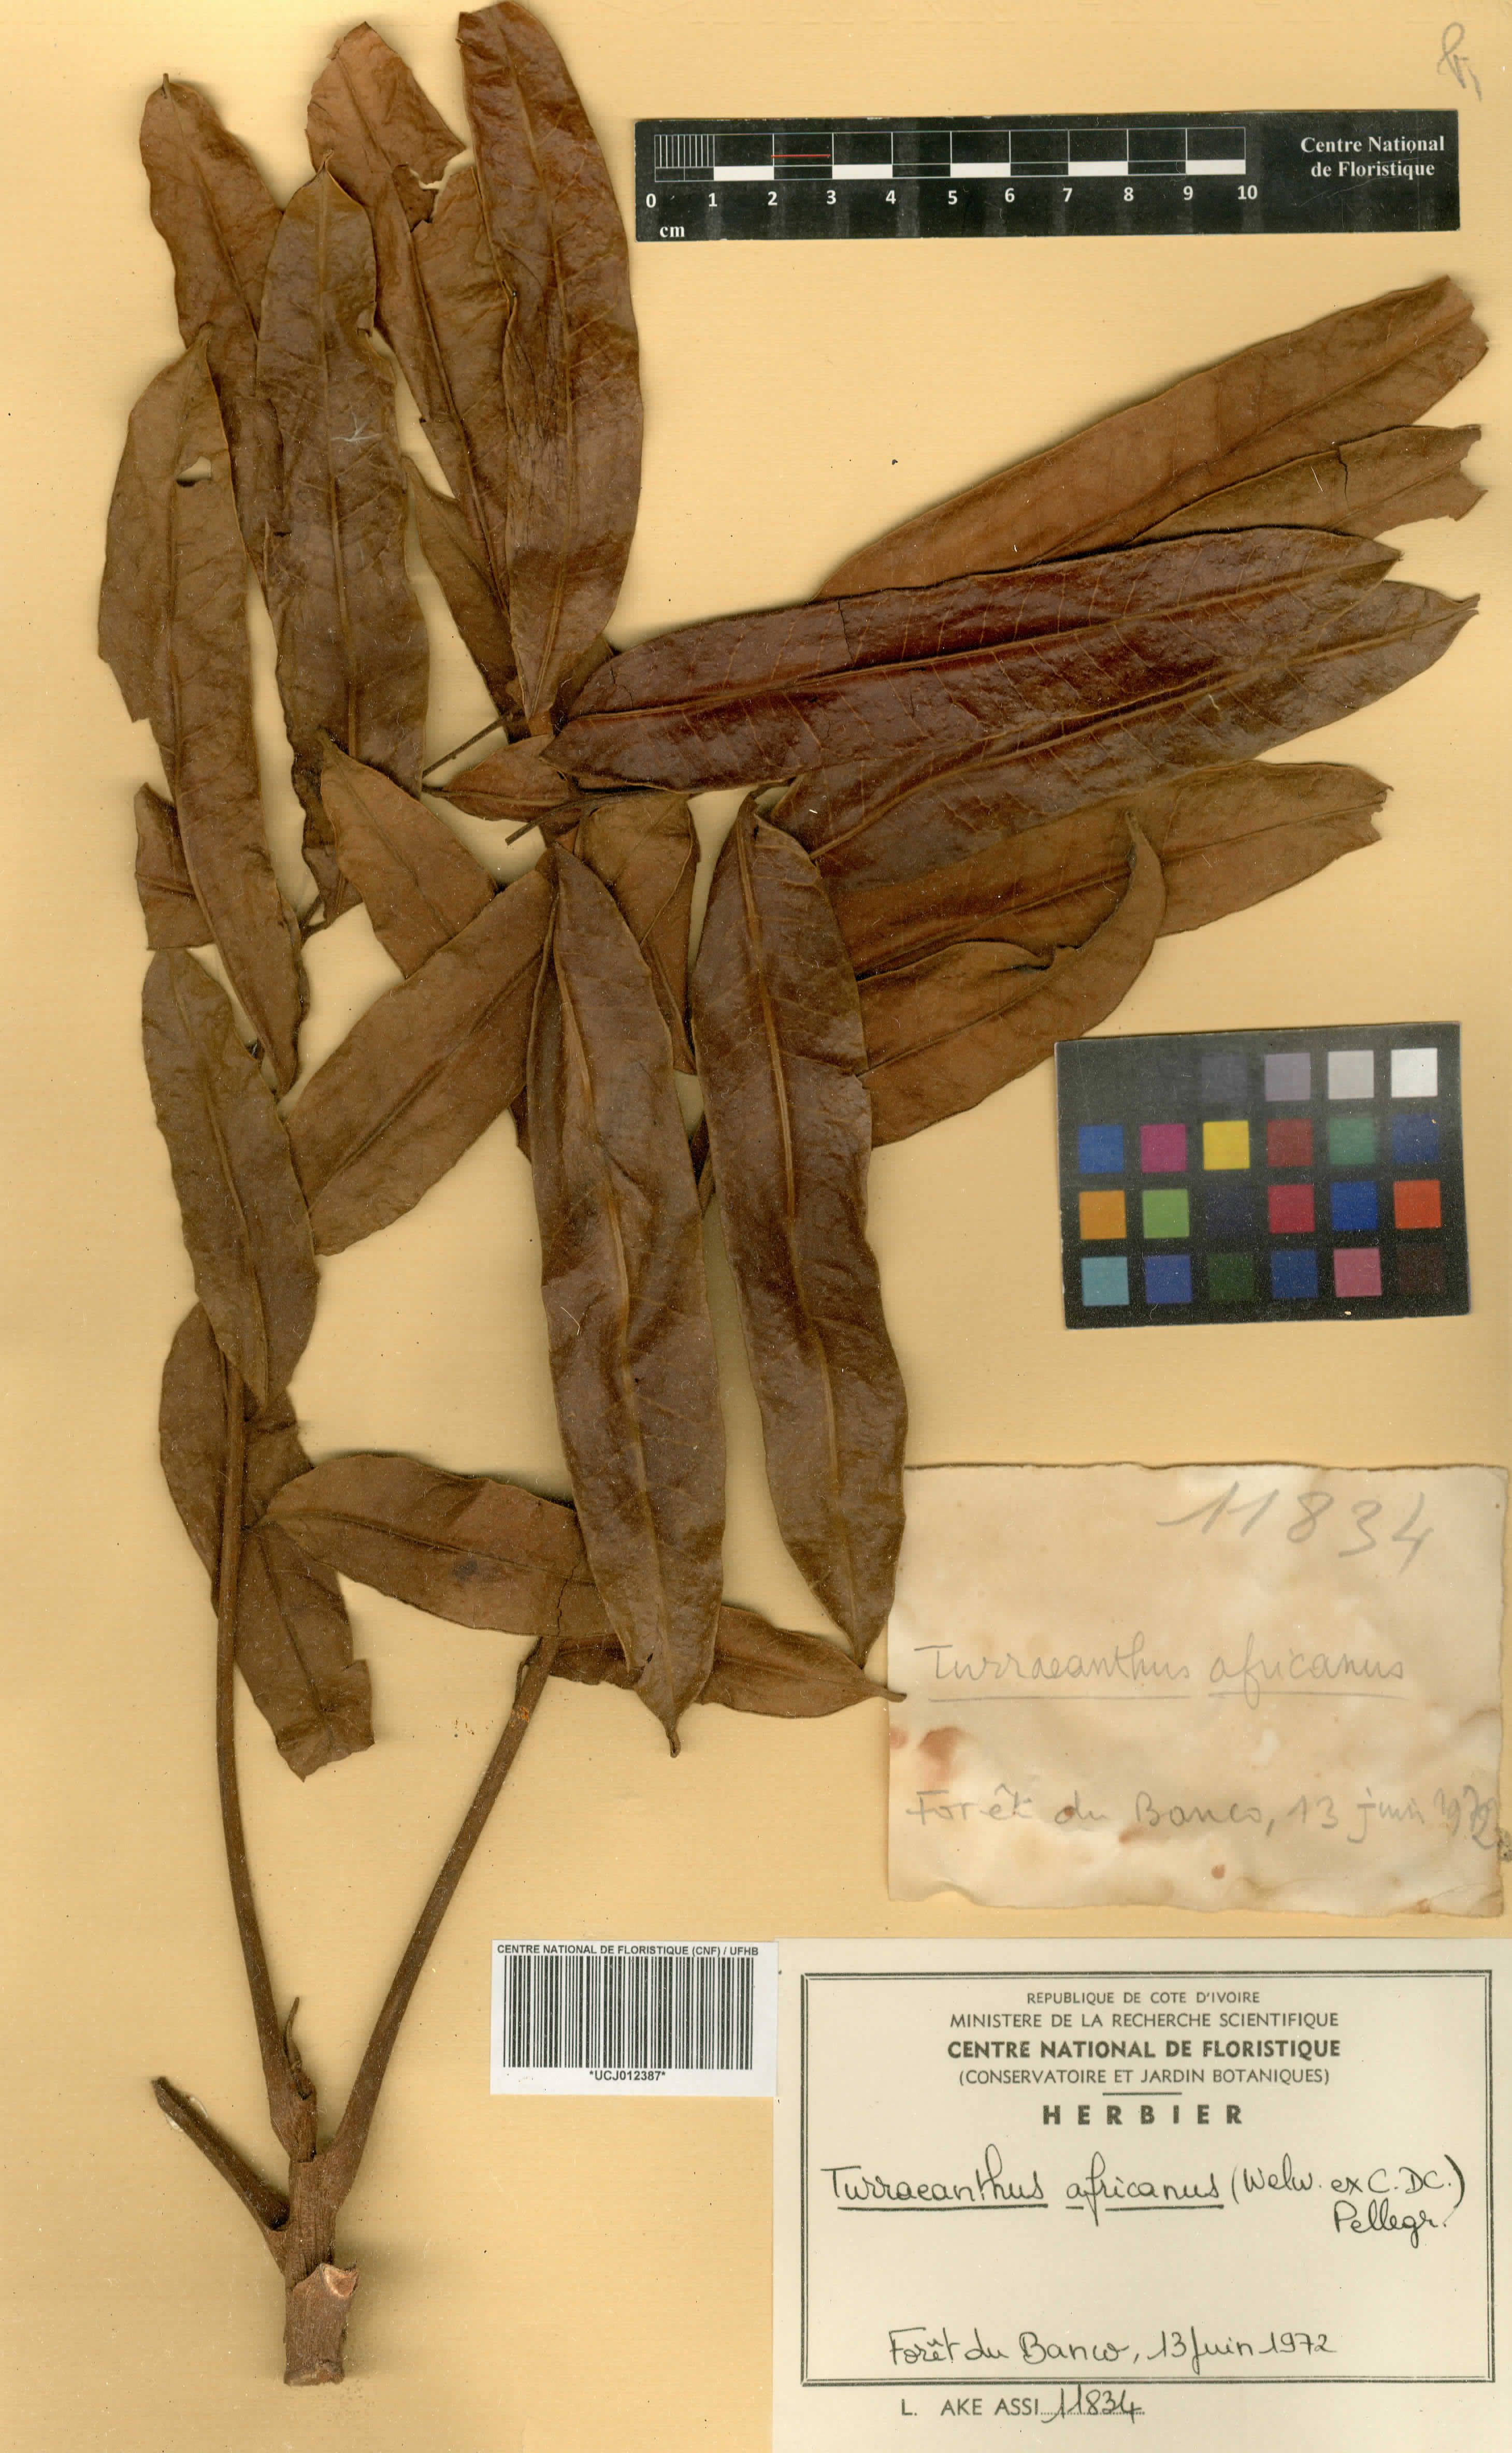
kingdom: Plantae
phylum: Tracheophyta
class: Magnoliopsida
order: Sapindales
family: Meliaceae
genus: Turraeanthus
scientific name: Turraeanthus africanus
